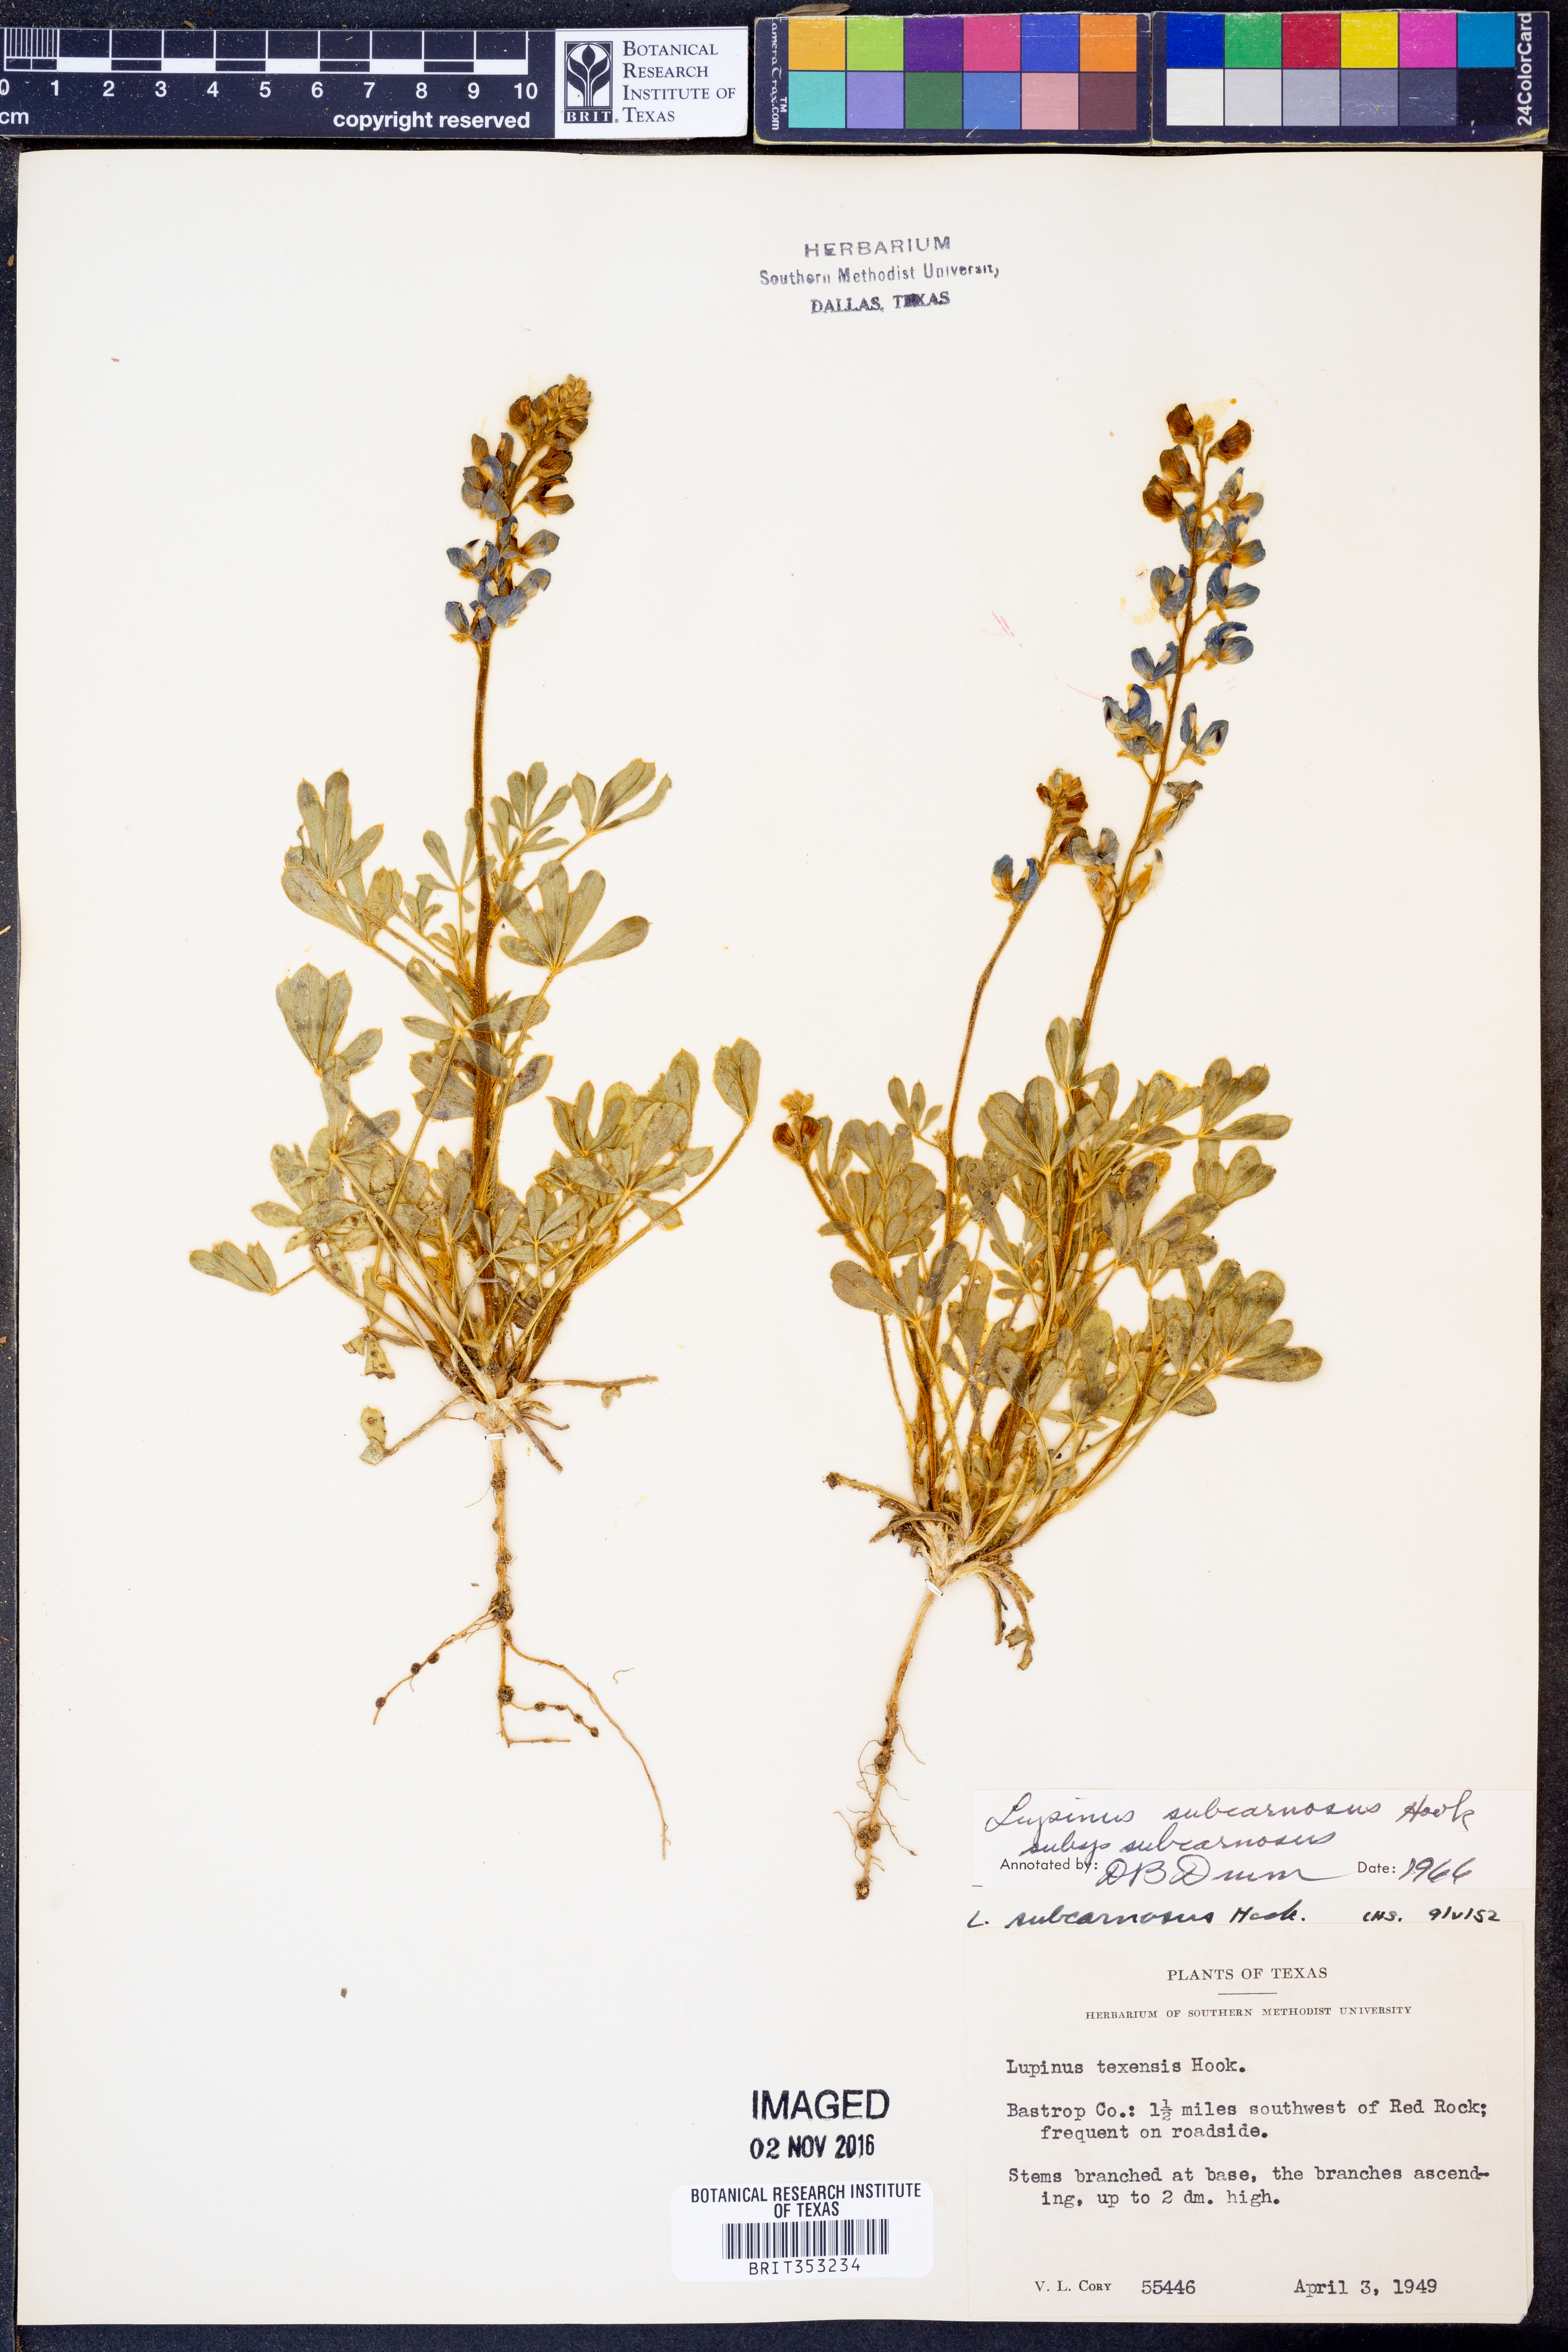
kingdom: Plantae
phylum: Tracheophyta
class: Magnoliopsida
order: Fabales
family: Fabaceae
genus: Lupinus
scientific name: Lupinus subcarnosus
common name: Texas bluebonnet
